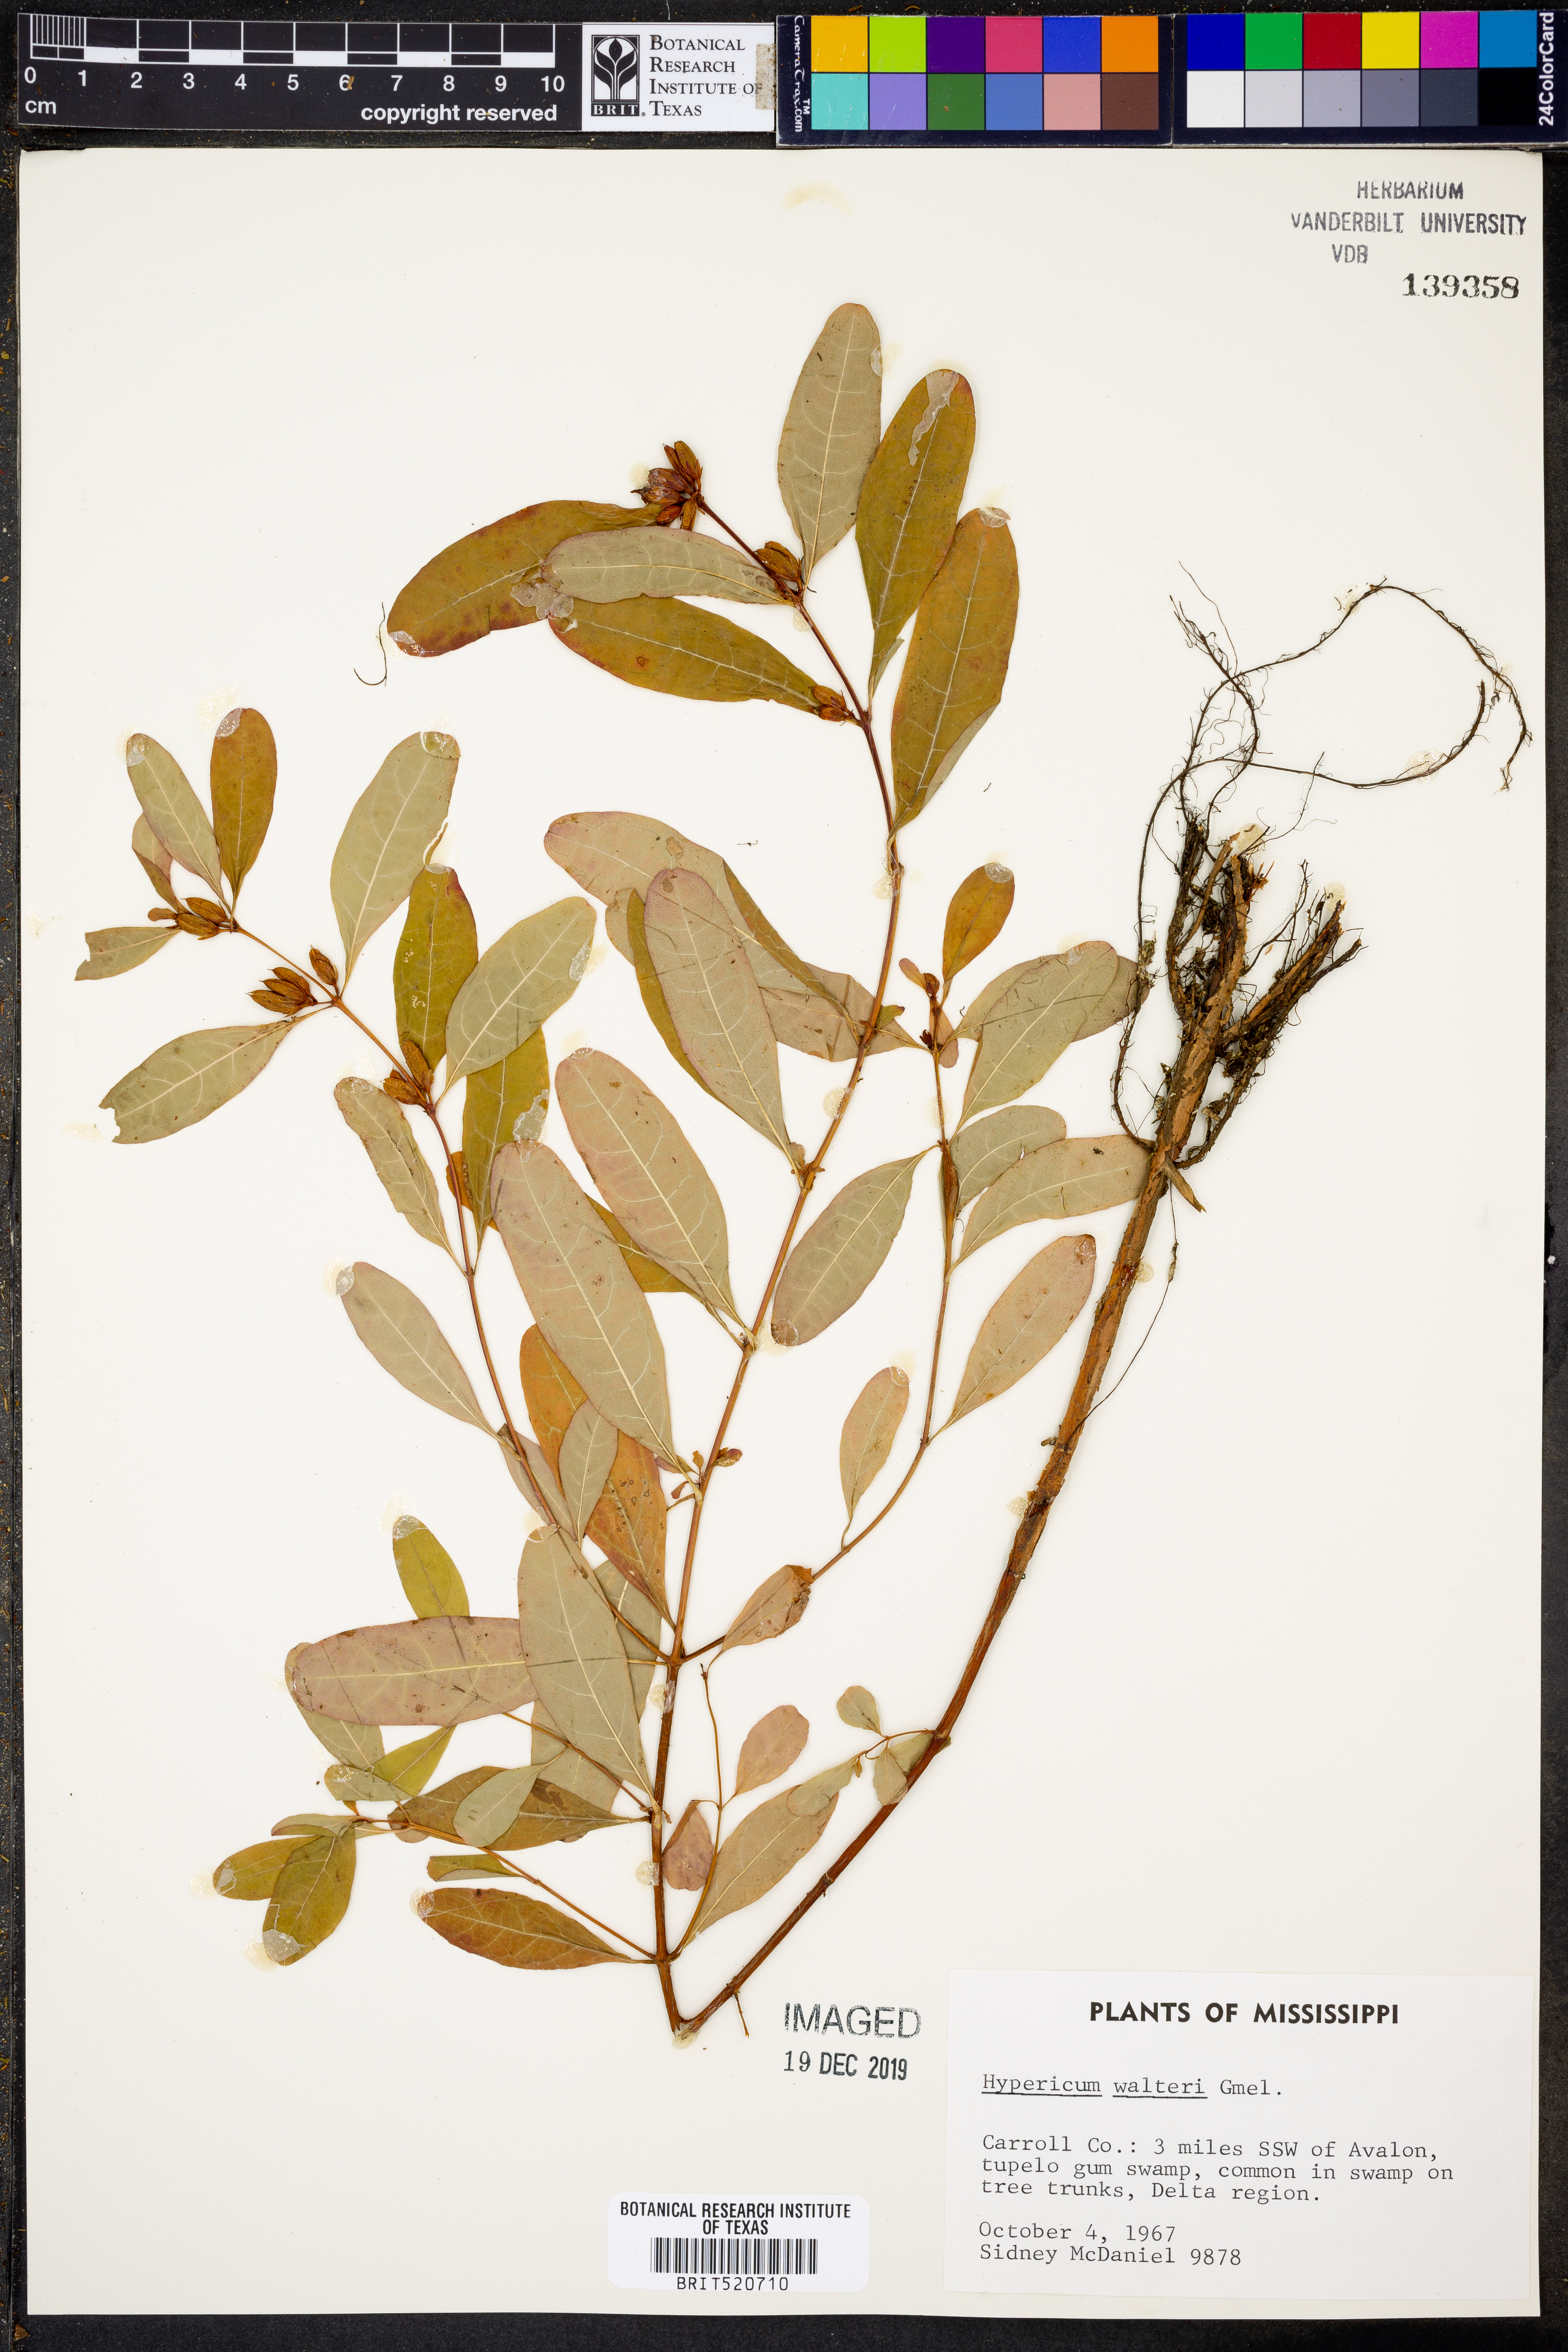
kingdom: Plantae
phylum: Tracheophyta
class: Magnoliopsida
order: Malpighiales
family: Hypericaceae
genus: Triadenum
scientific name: Triadenum walteri
